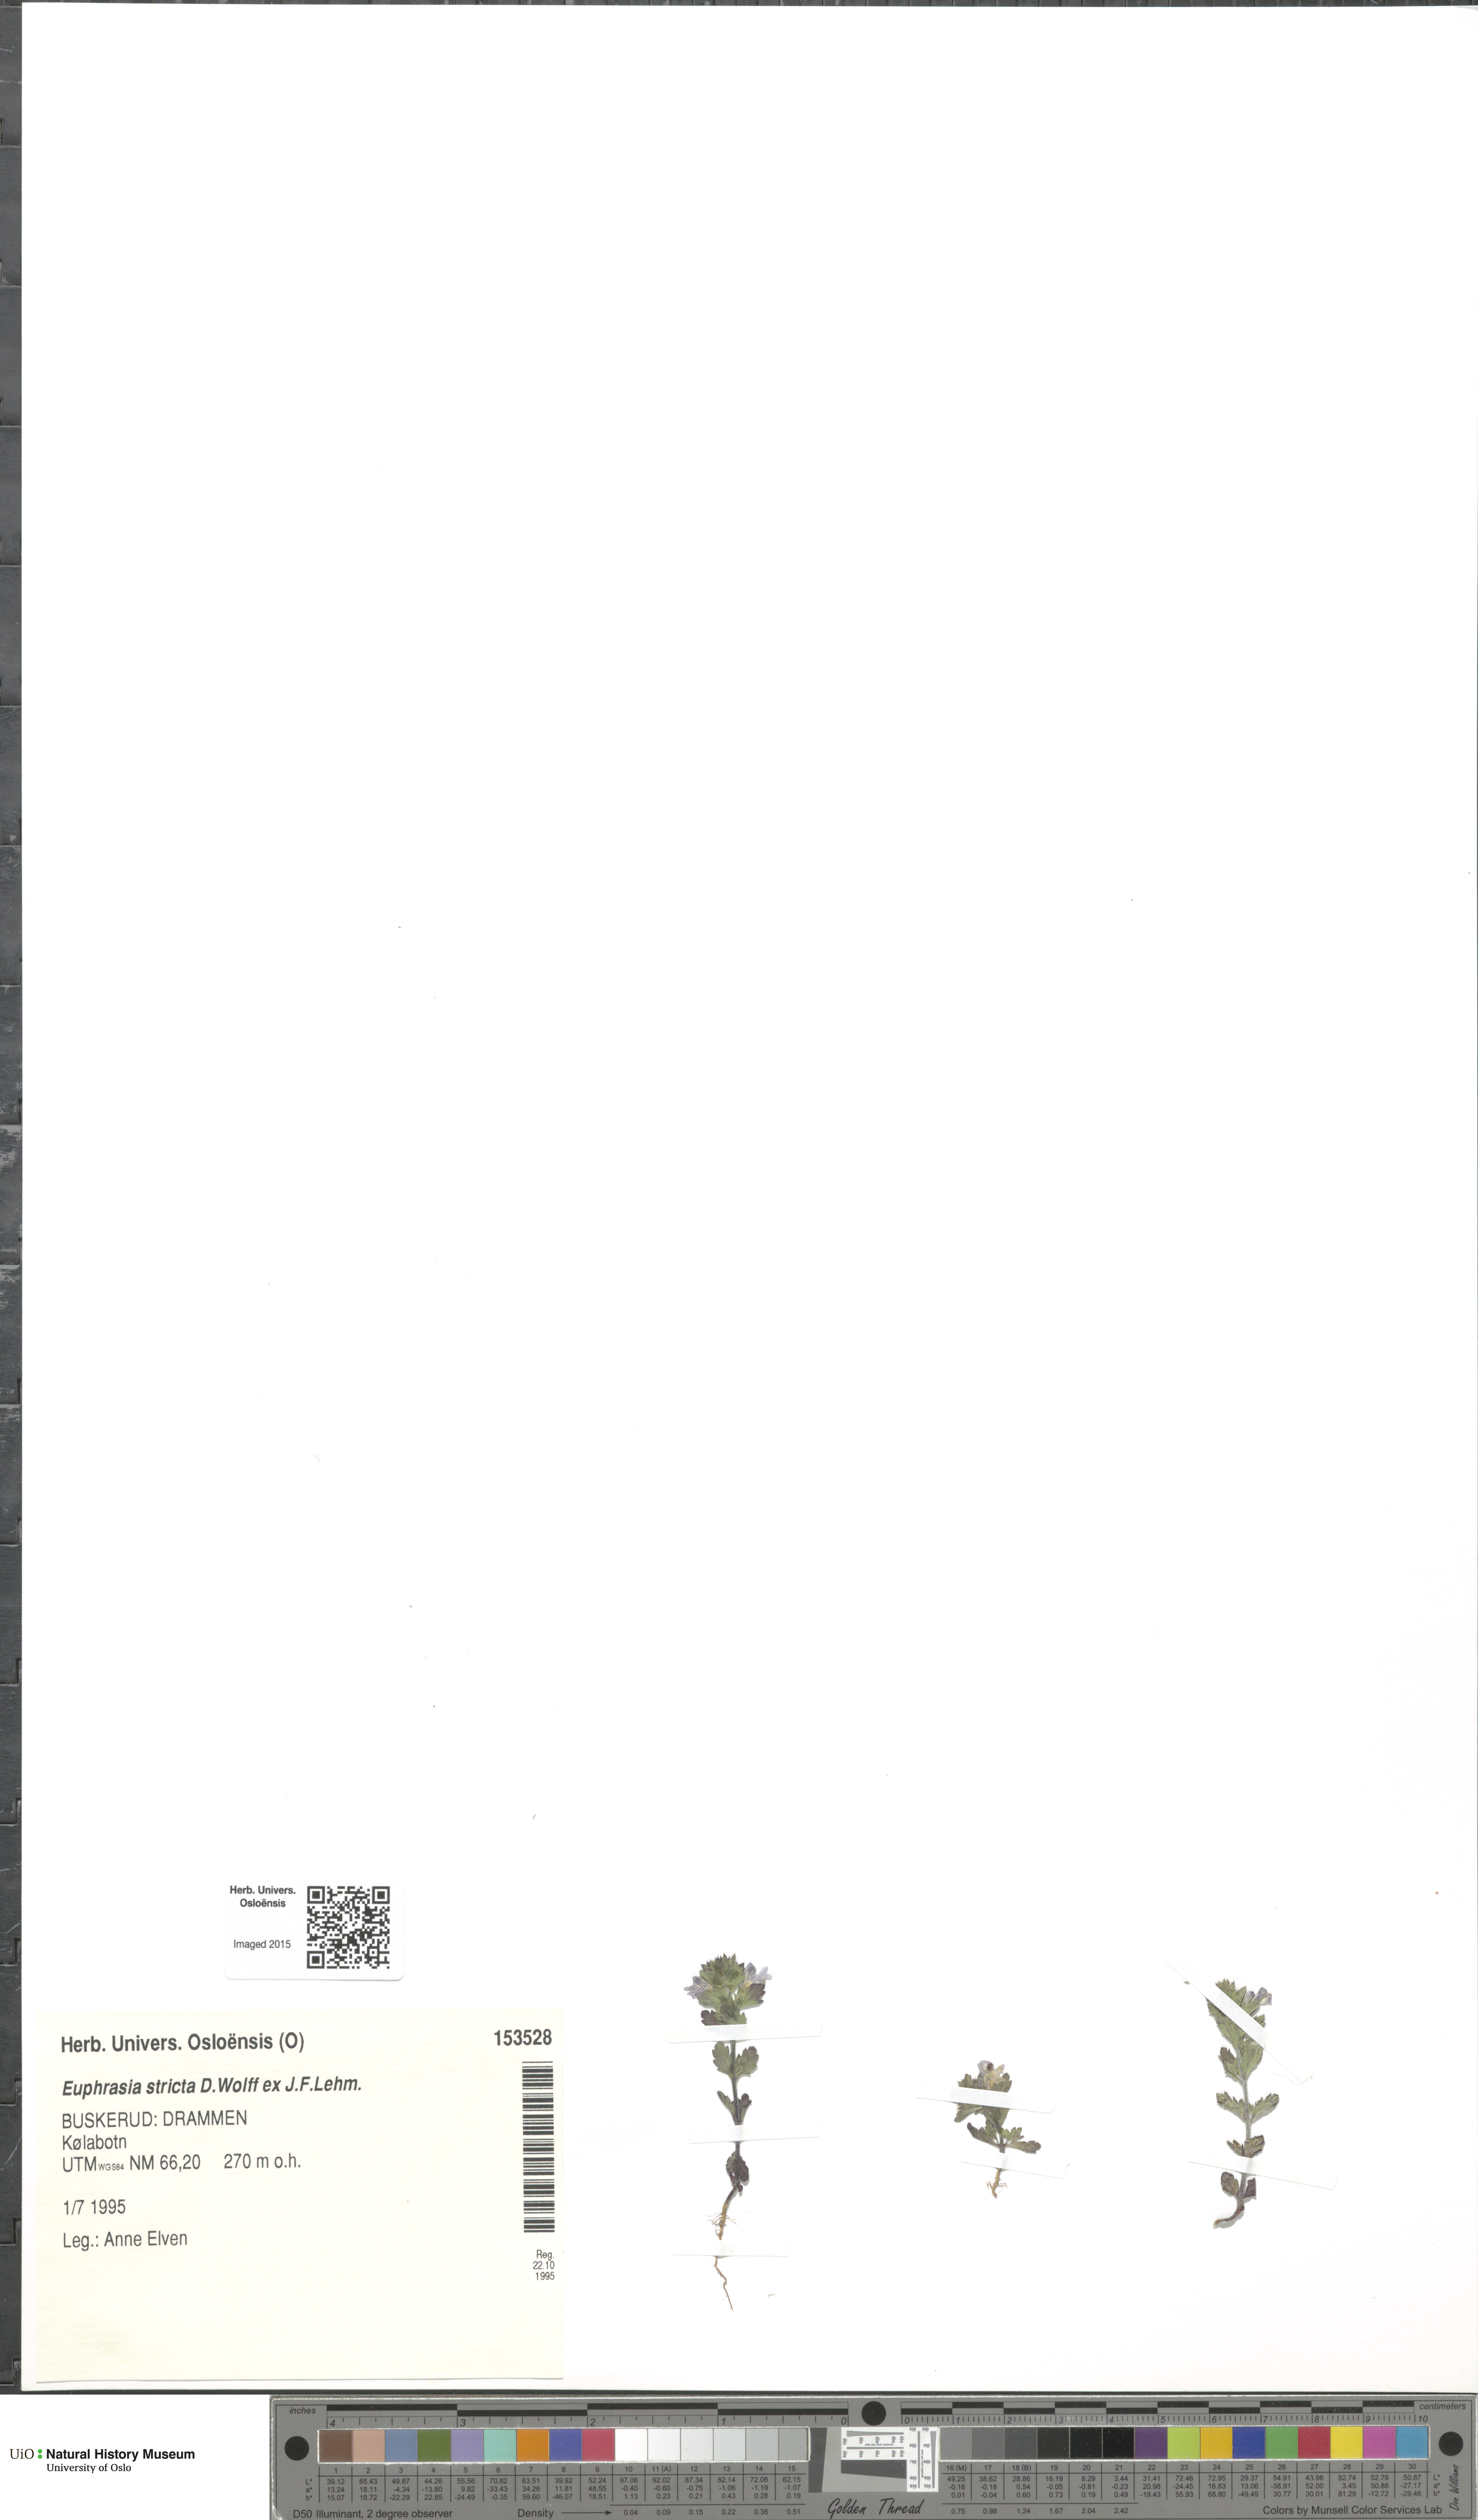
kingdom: Plantae
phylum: Tracheophyta
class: Magnoliopsida
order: Lamiales
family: Orobanchaceae
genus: Euphrasia
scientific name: Euphrasia stricta
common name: Drug eyebright
